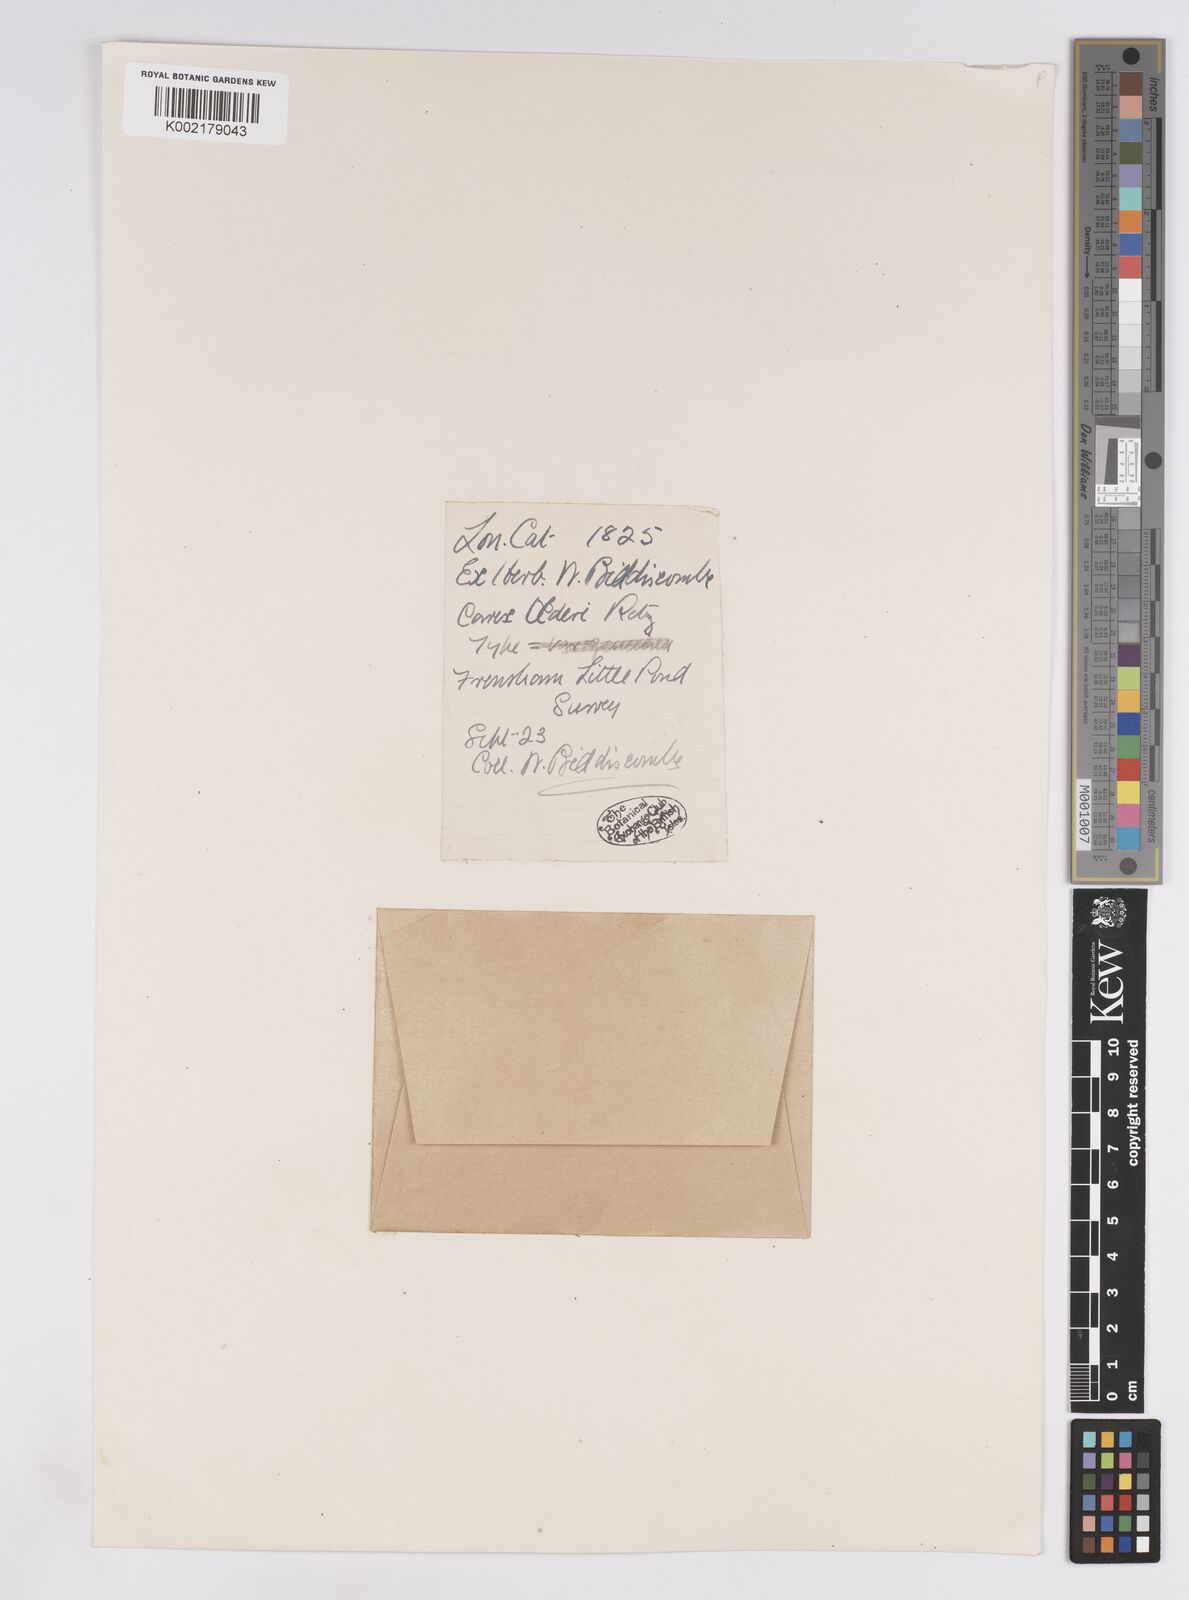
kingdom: Plantae
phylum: Tracheophyta
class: Liliopsida
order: Poales
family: Cyperaceae
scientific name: Cyperaceae
